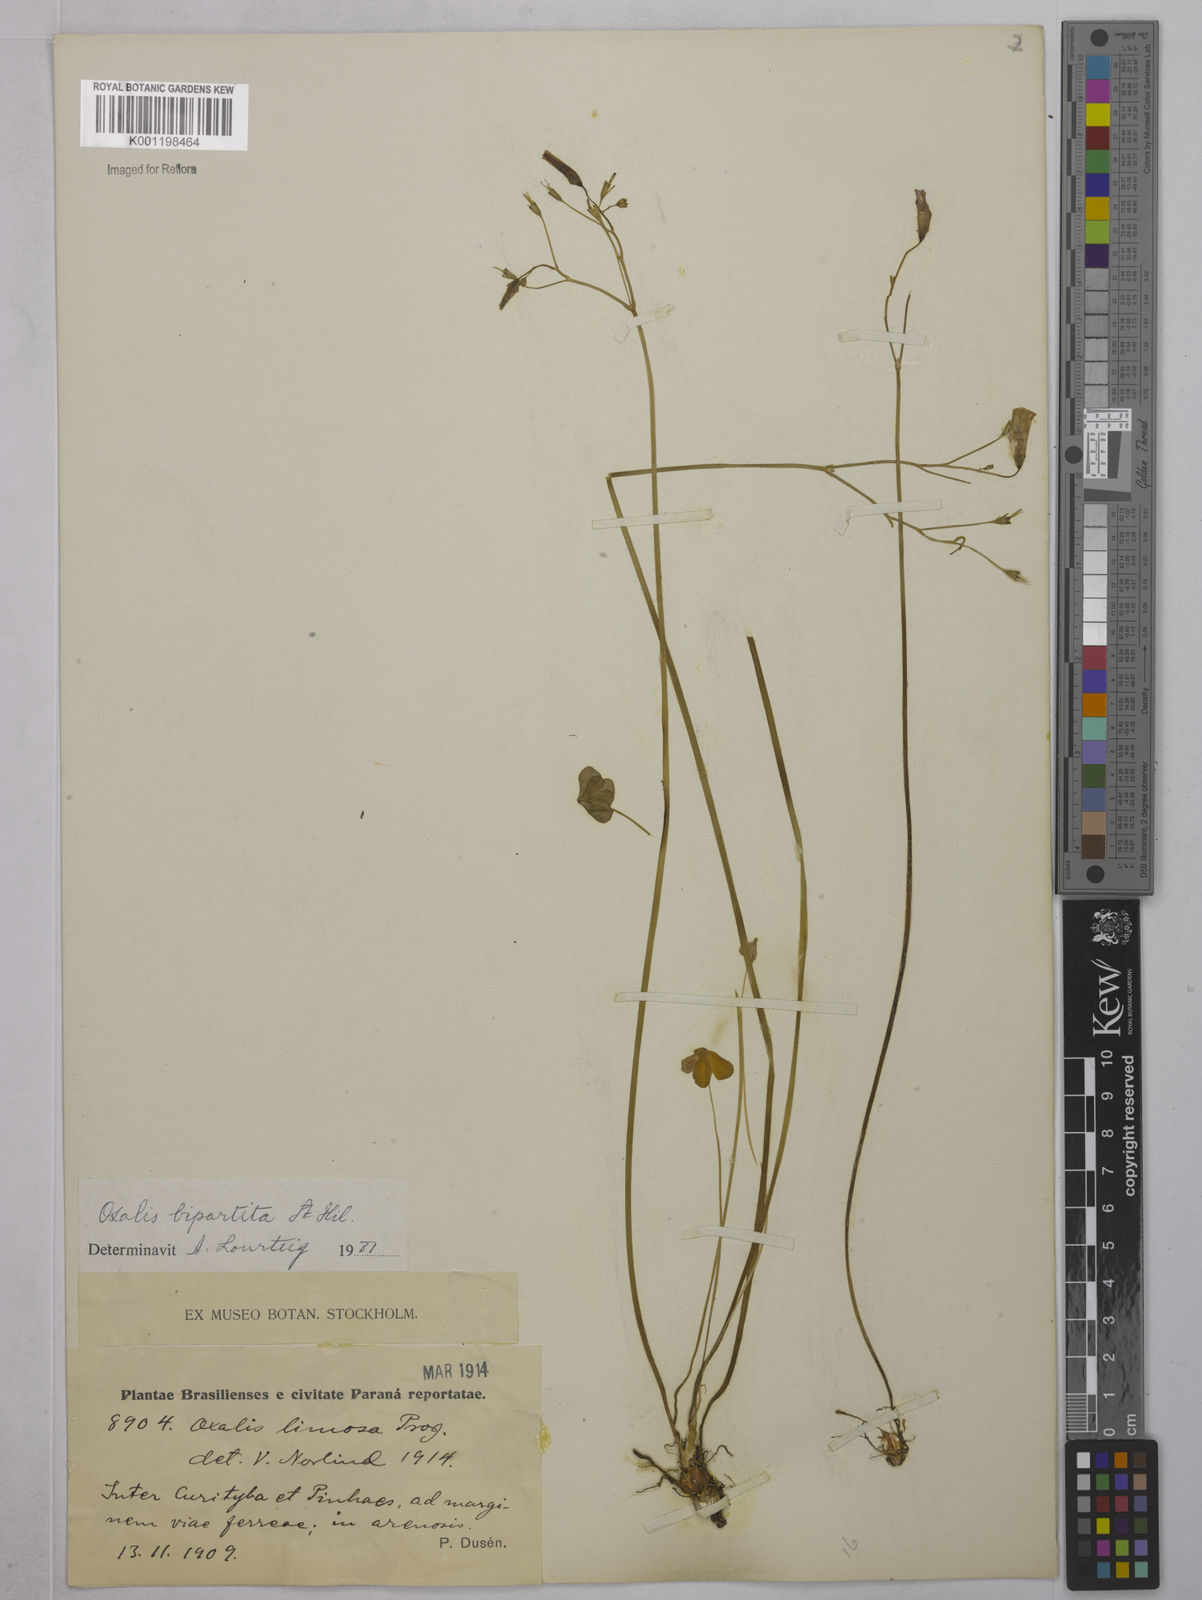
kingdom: Plantae
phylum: Tracheophyta
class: Magnoliopsida
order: Oxalidales
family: Oxalidaceae
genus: Oxalis
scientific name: Oxalis bipartita
